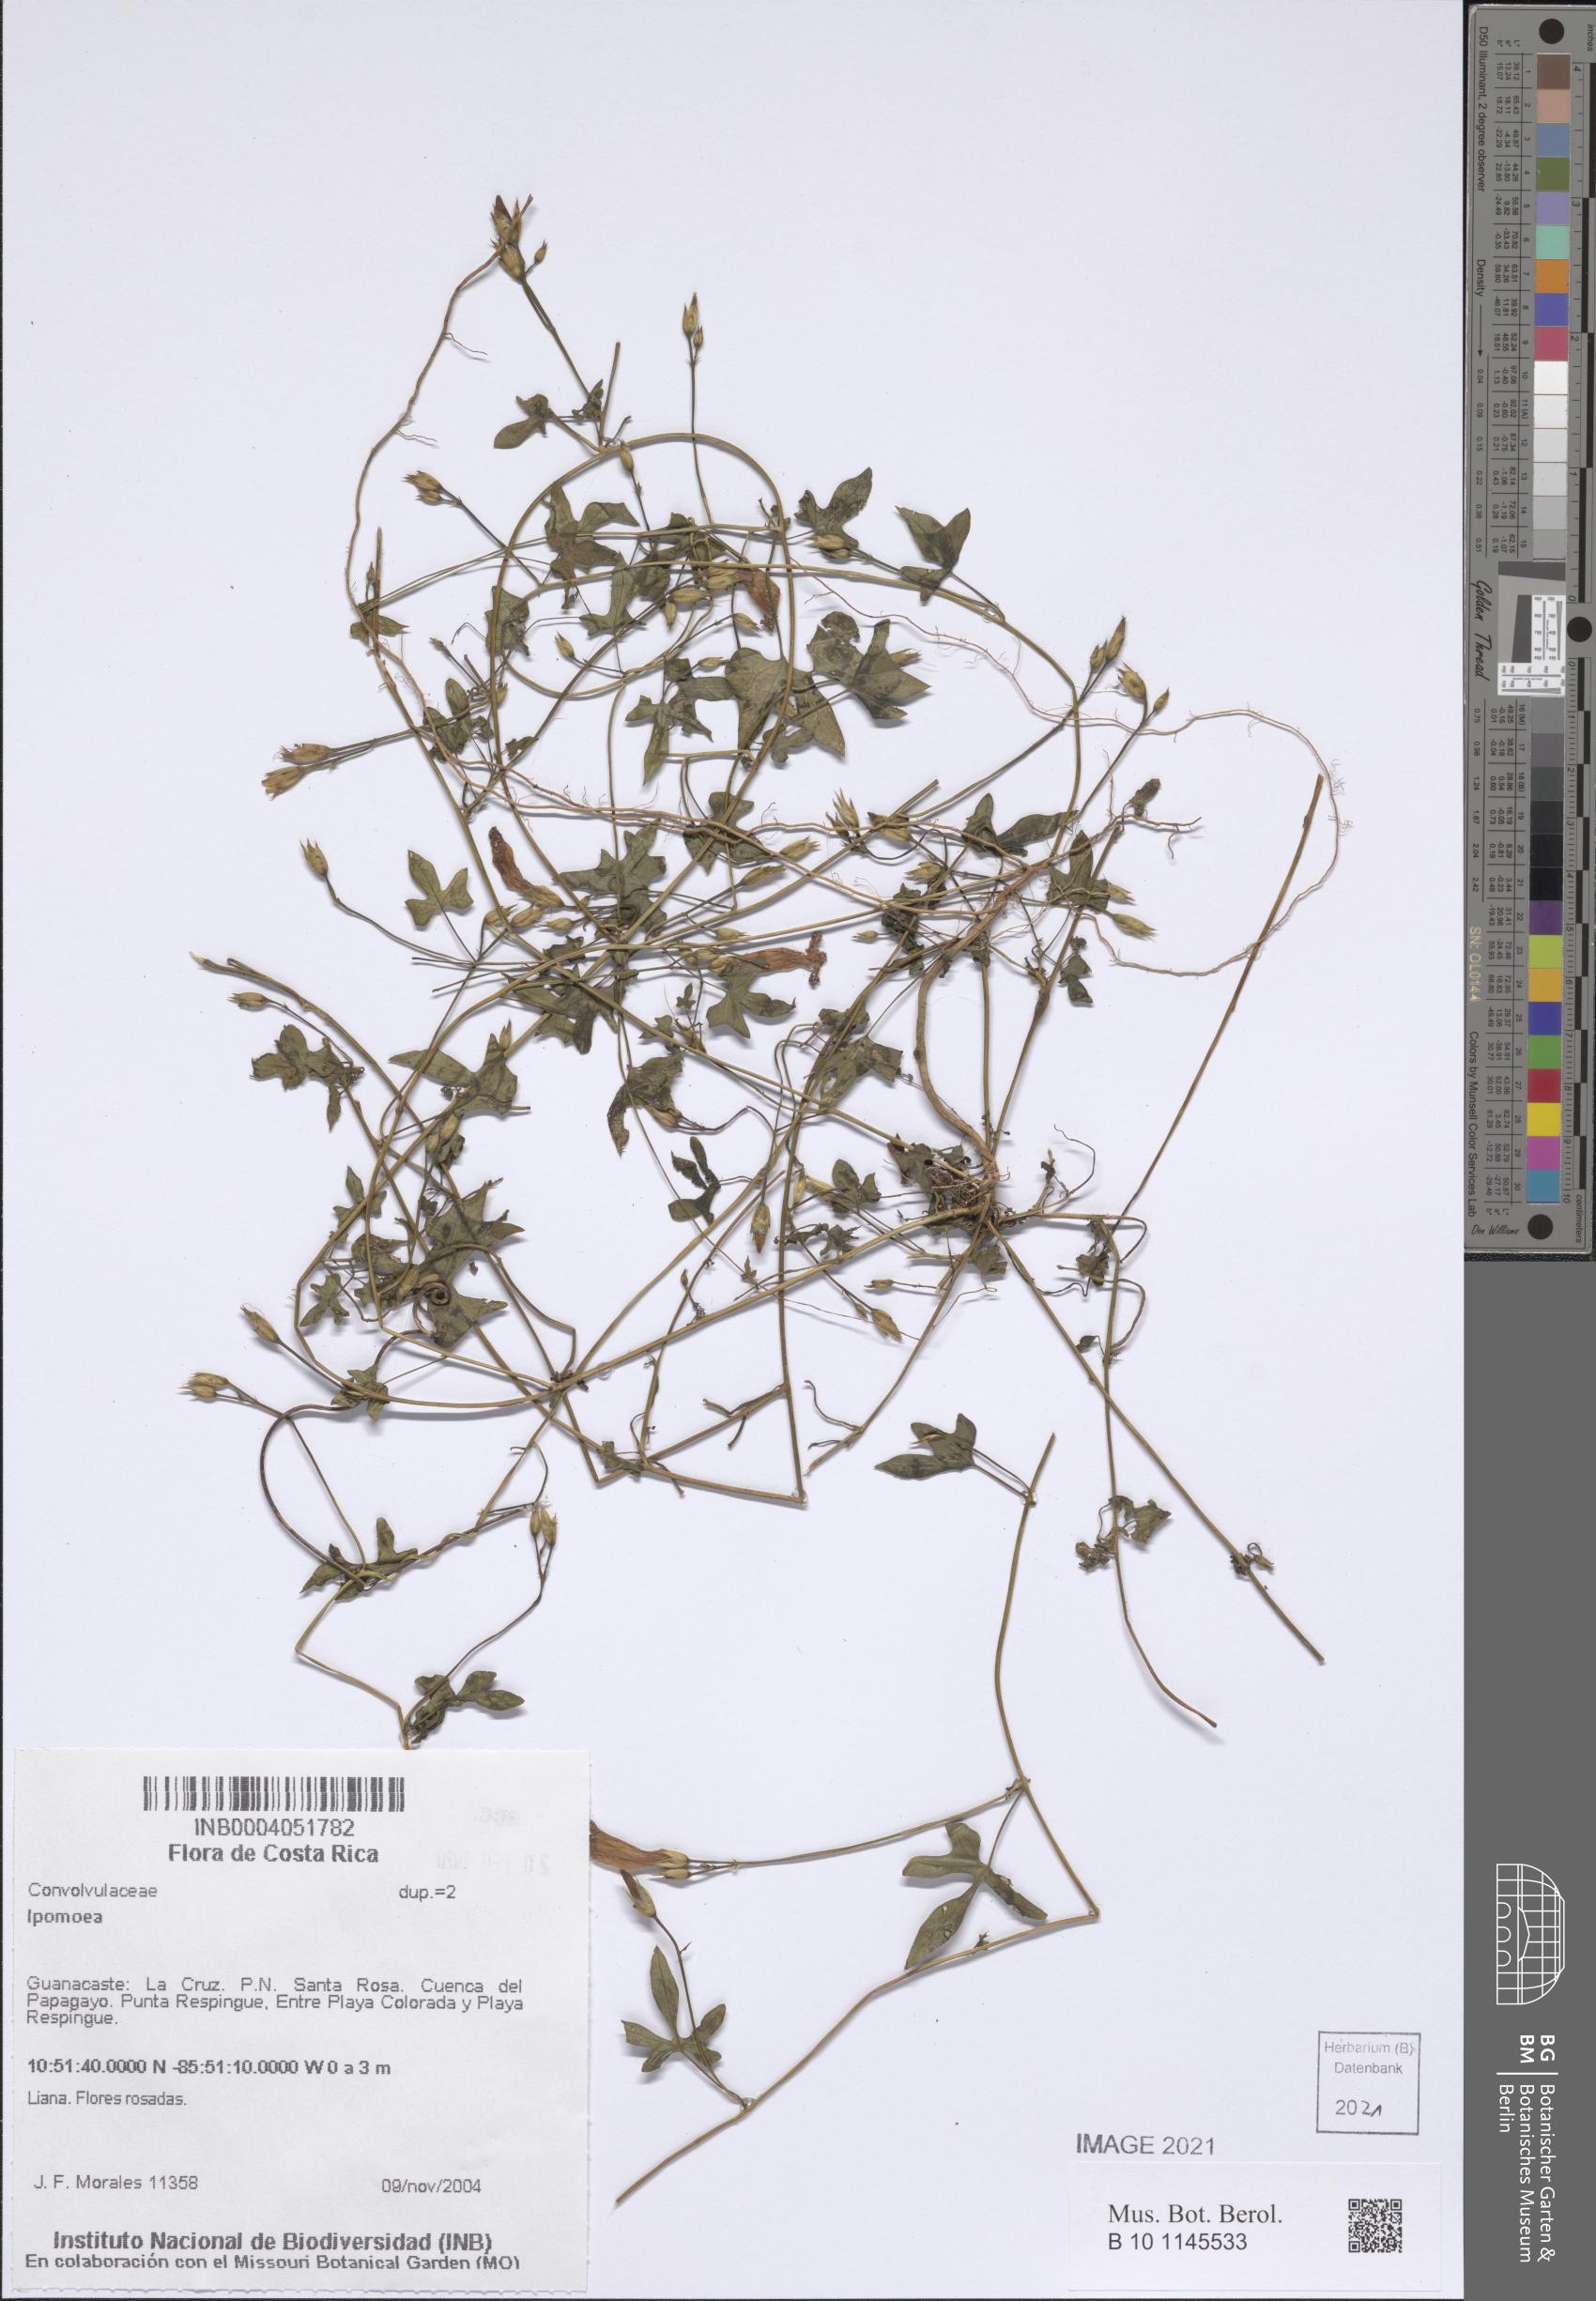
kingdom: Plantae
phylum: Tracheophyta
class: Magnoliopsida
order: Solanales
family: Convolvulaceae
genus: Ipomoea
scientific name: Ipomoea
